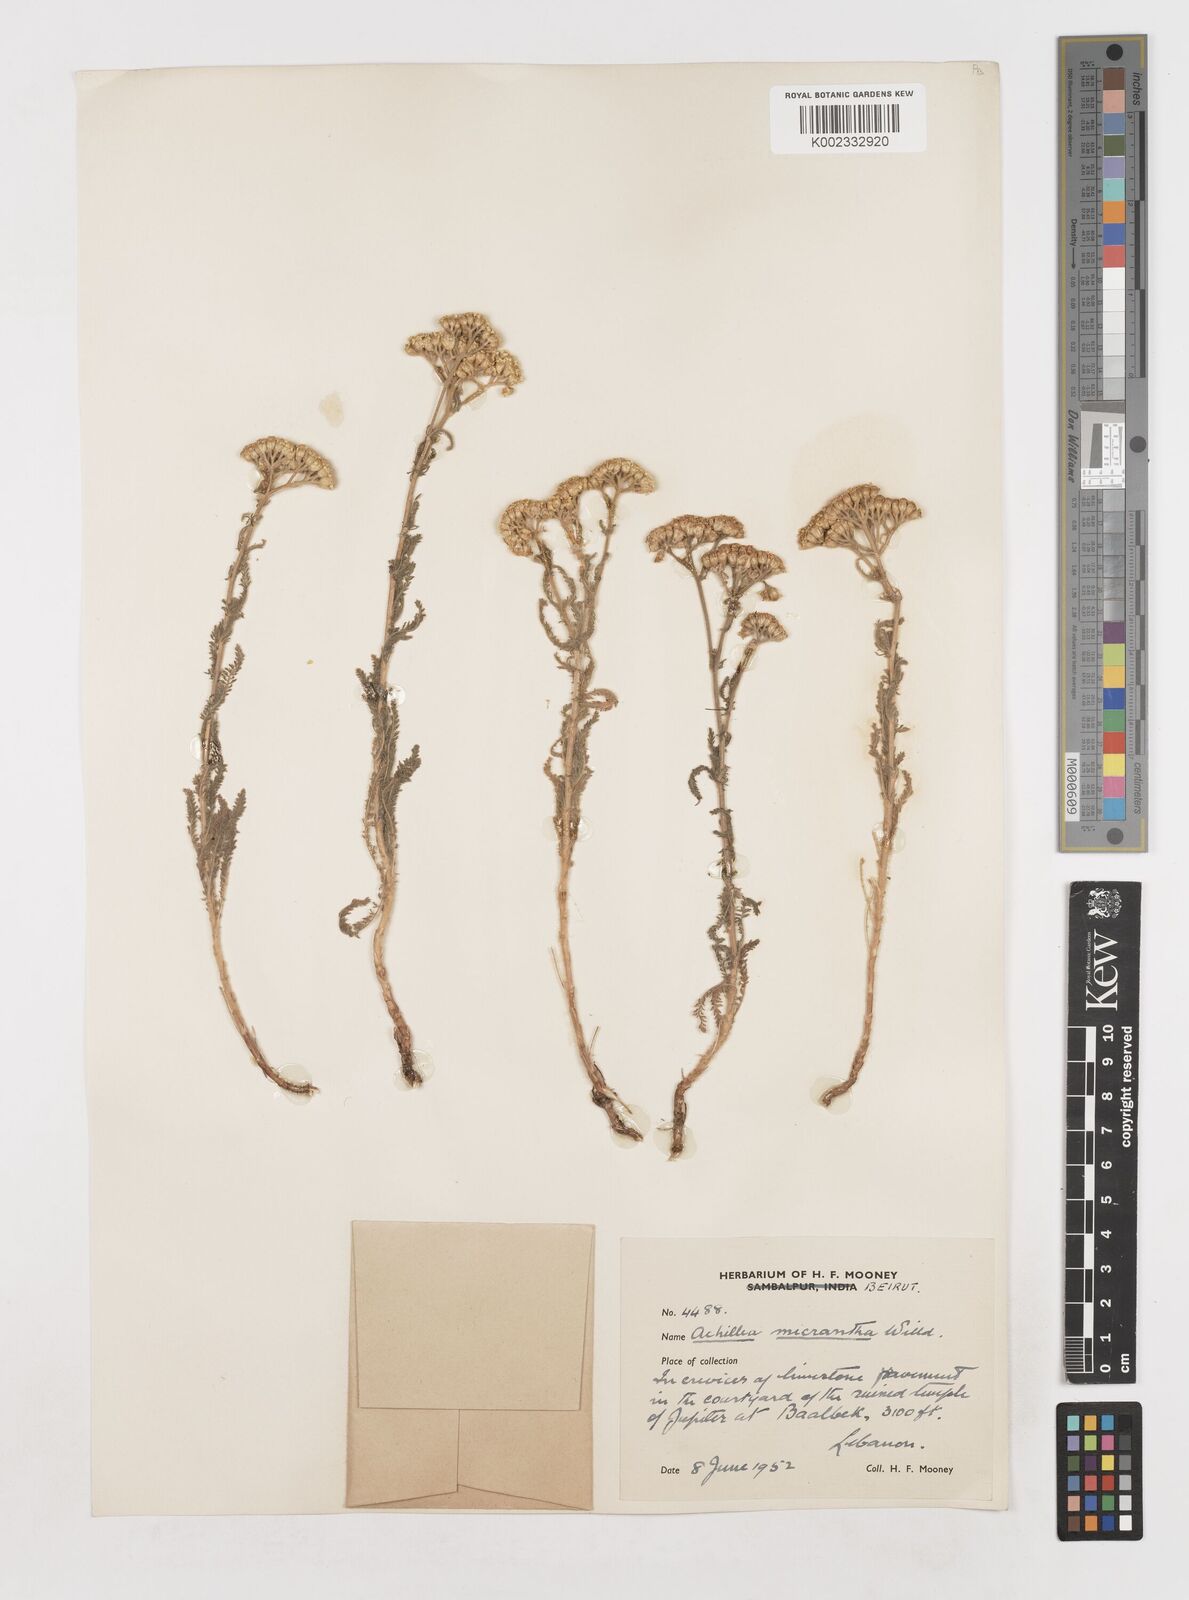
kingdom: Plantae
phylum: Tracheophyta
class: Magnoliopsida
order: Asterales
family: Asteraceae
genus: Achillea
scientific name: Achillea arabica
